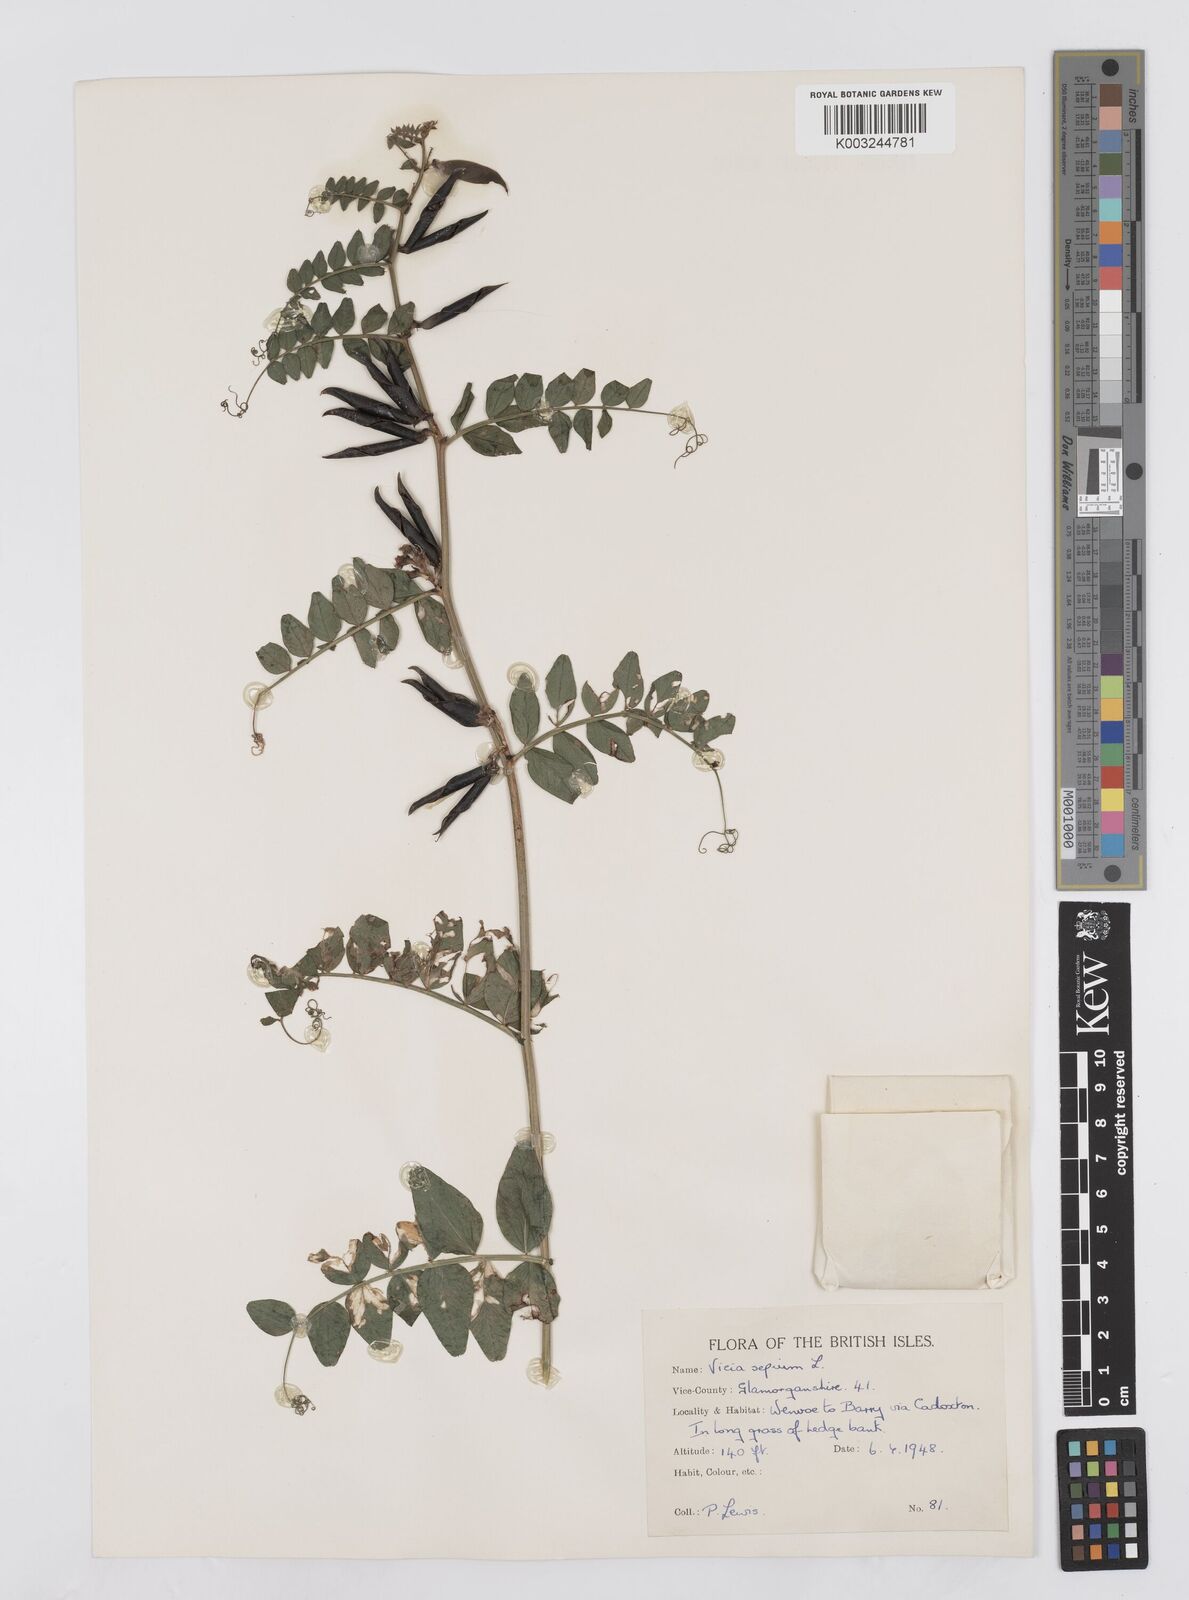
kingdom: Plantae
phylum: Tracheophyta
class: Magnoliopsida
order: Fabales
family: Fabaceae
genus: Vicia
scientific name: Vicia sepium
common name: Bush vetch
